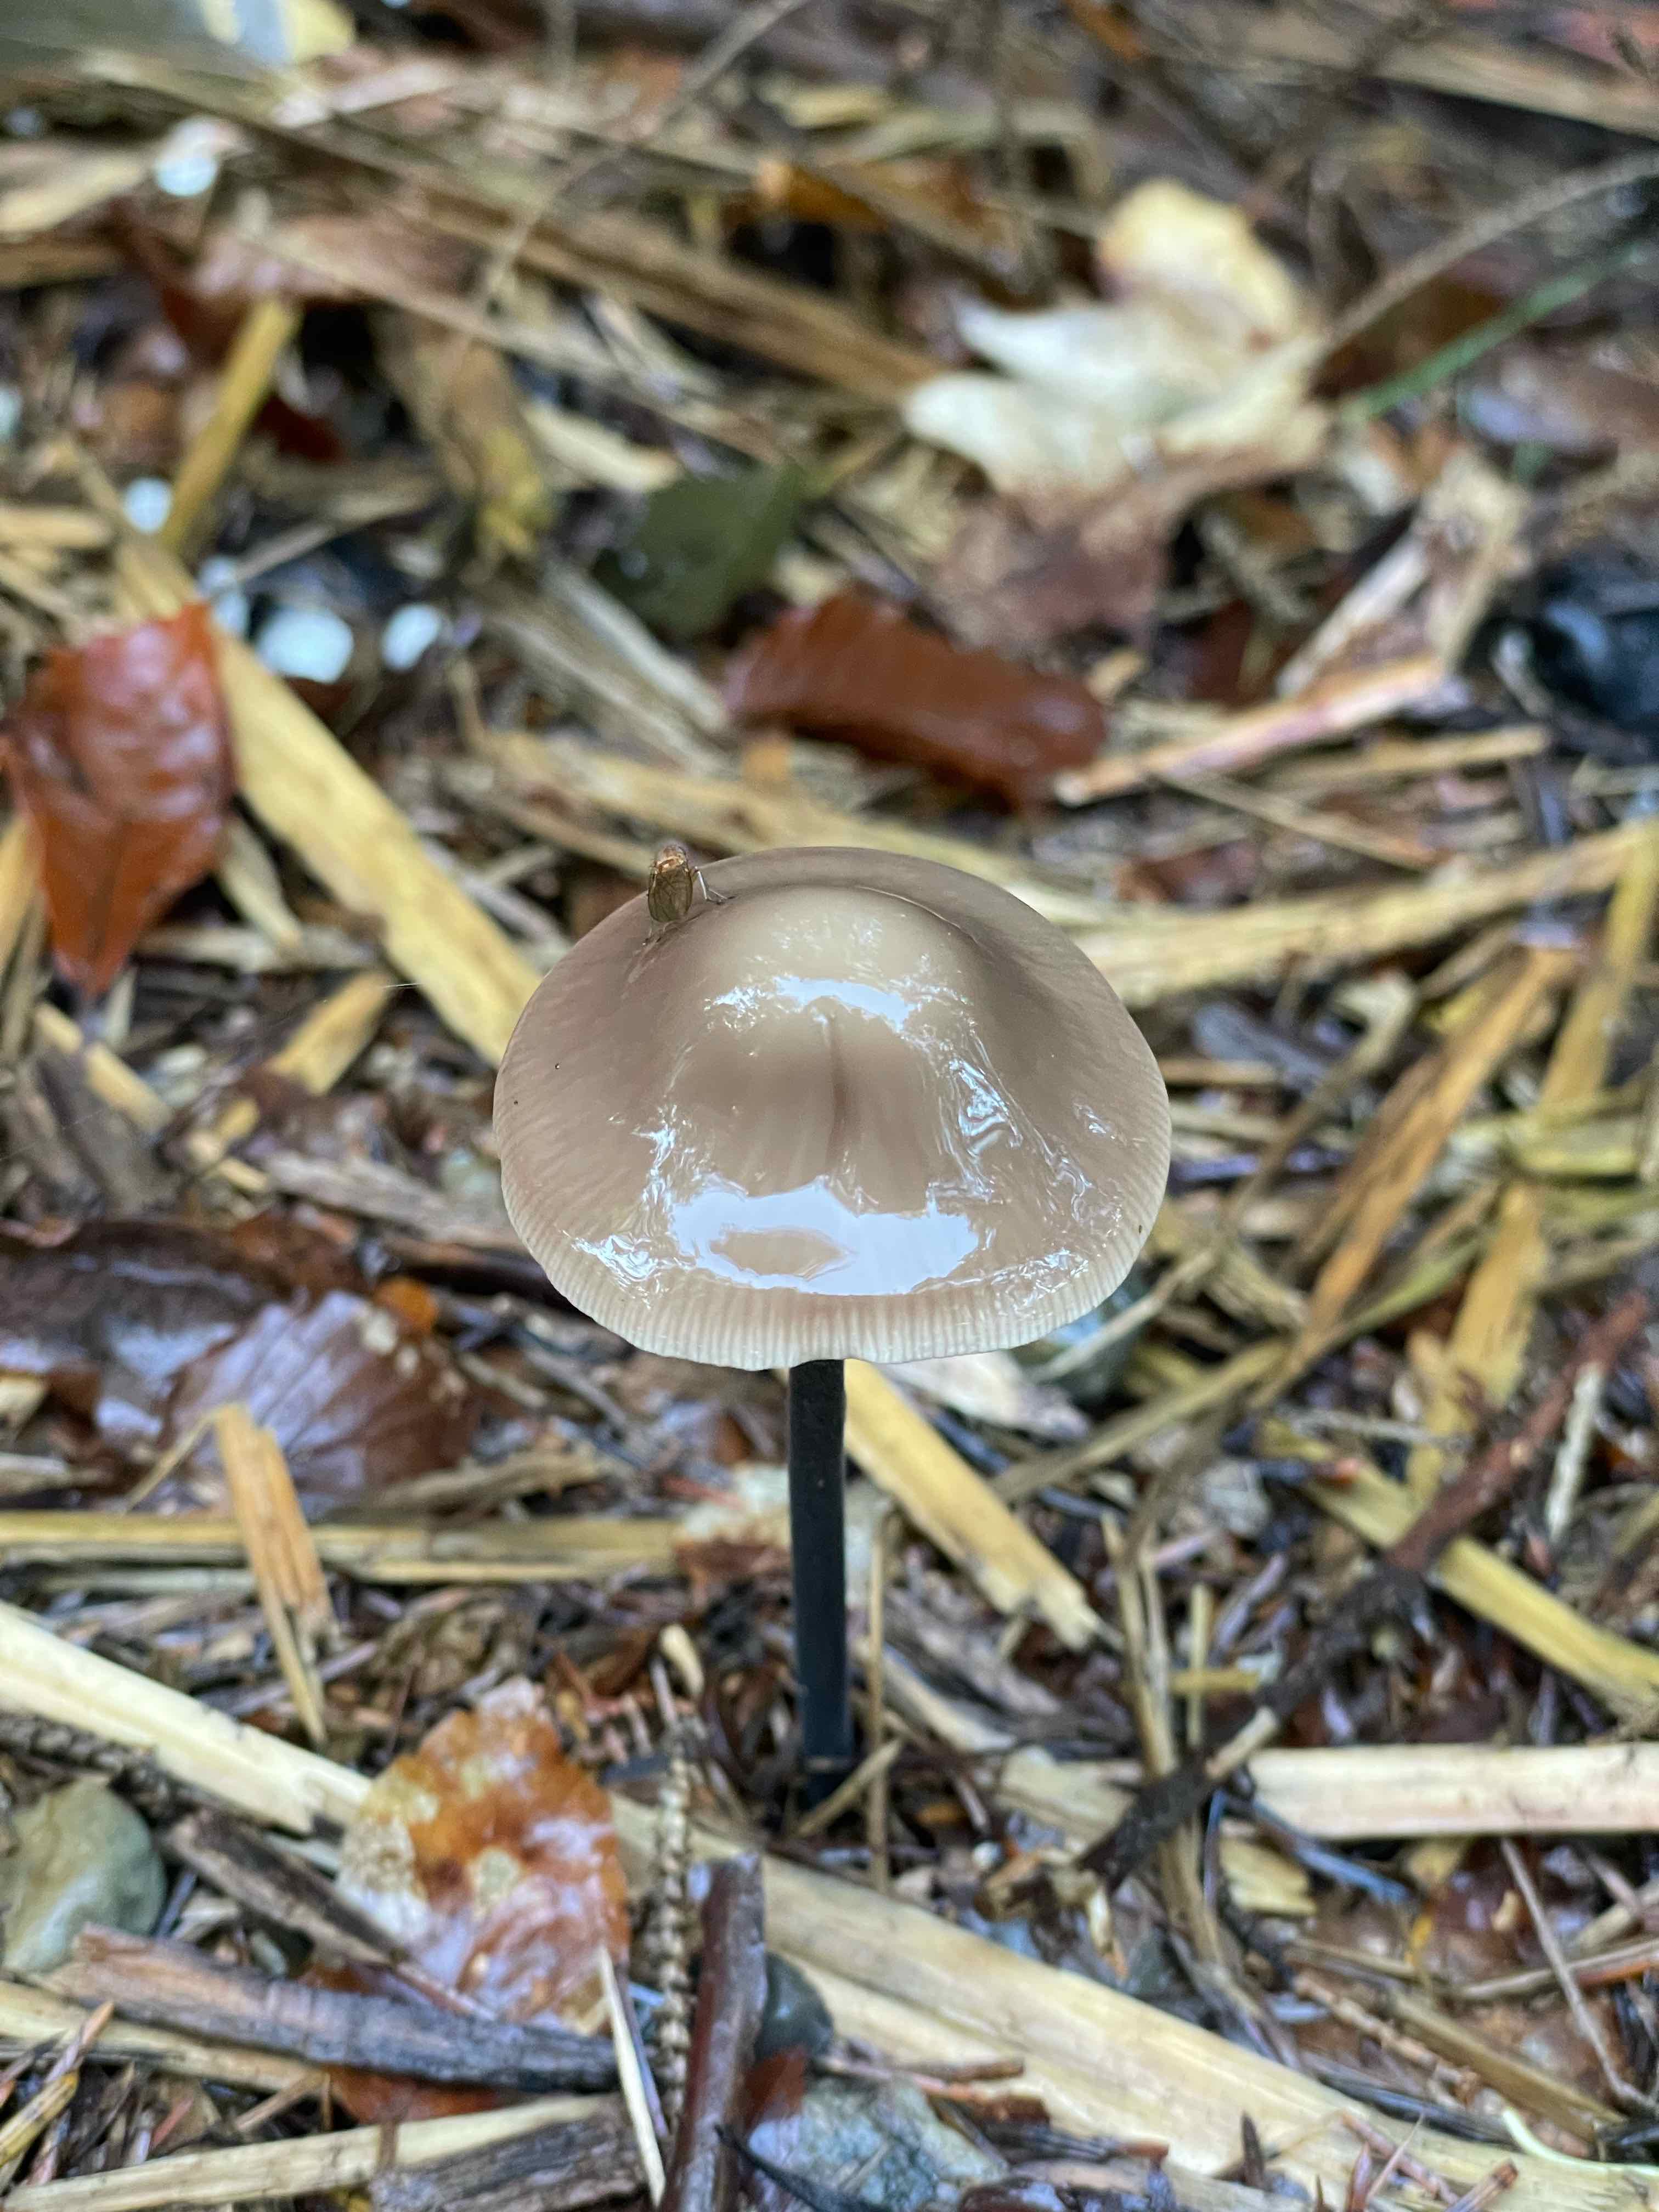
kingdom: Fungi
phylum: Basidiomycota
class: Agaricomycetes
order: Agaricales
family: Omphalotaceae
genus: Mycetinis
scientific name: Mycetinis alliaceus
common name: stor løghat
